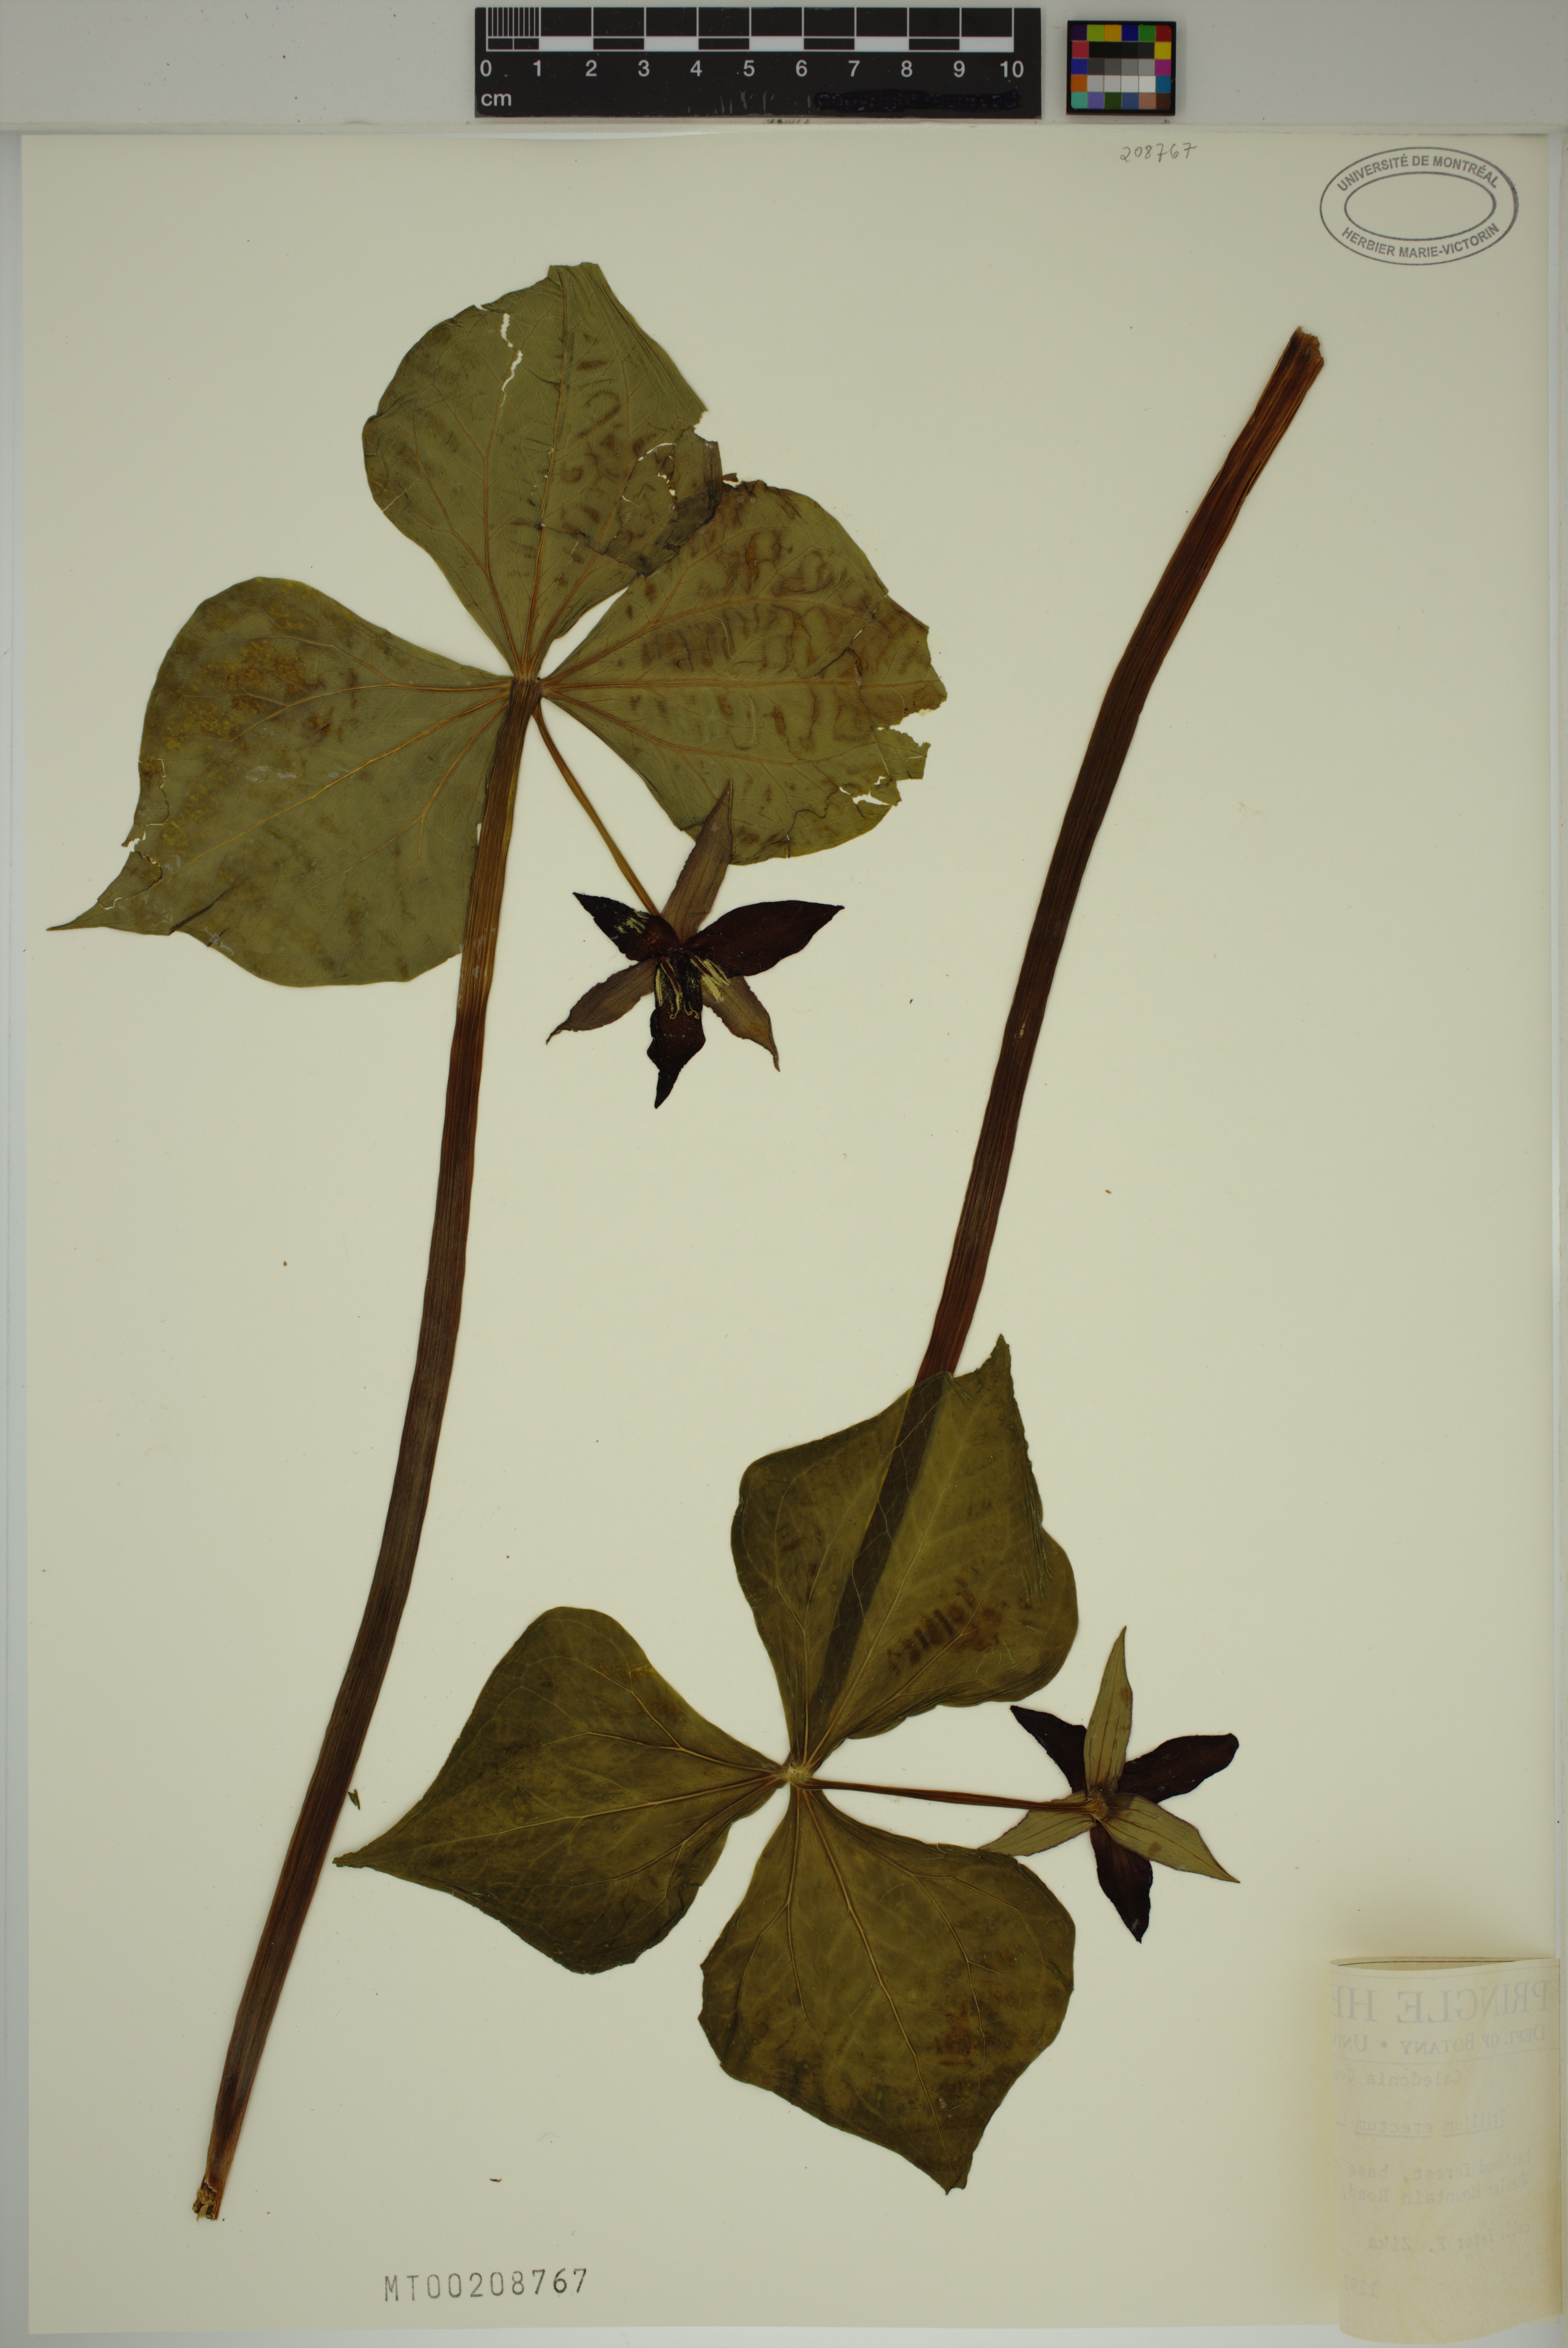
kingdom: Plantae
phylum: Tracheophyta
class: Liliopsida
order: Liliales
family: Melanthiaceae
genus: Trillium
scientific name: Trillium erectum
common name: Purple trillium
